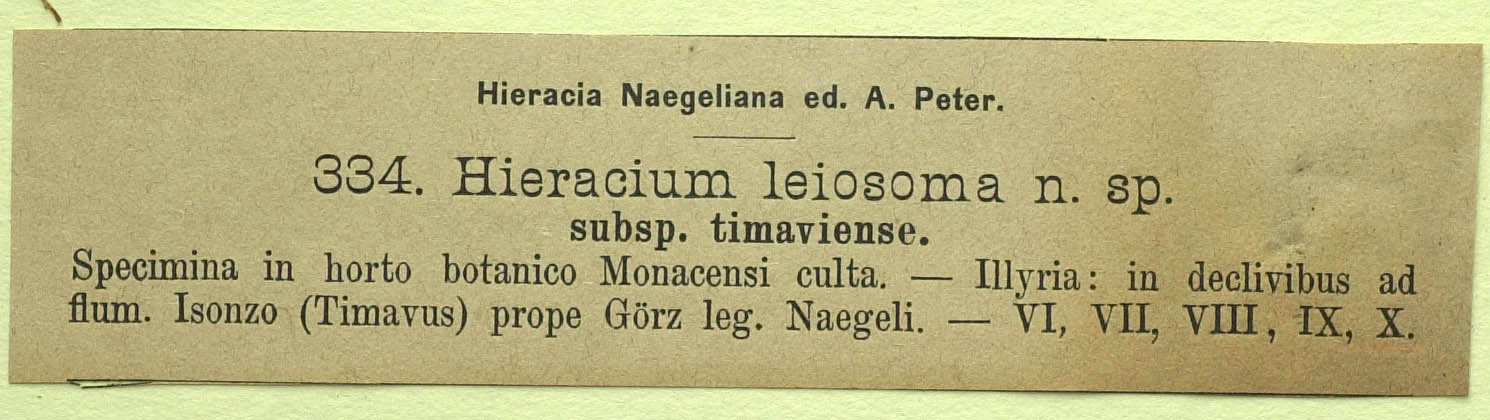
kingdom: Plantae
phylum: Tracheophyta
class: Magnoliopsida
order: Asterales
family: Asteraceae
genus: Hieracium
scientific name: Hieracium leiocephalum
